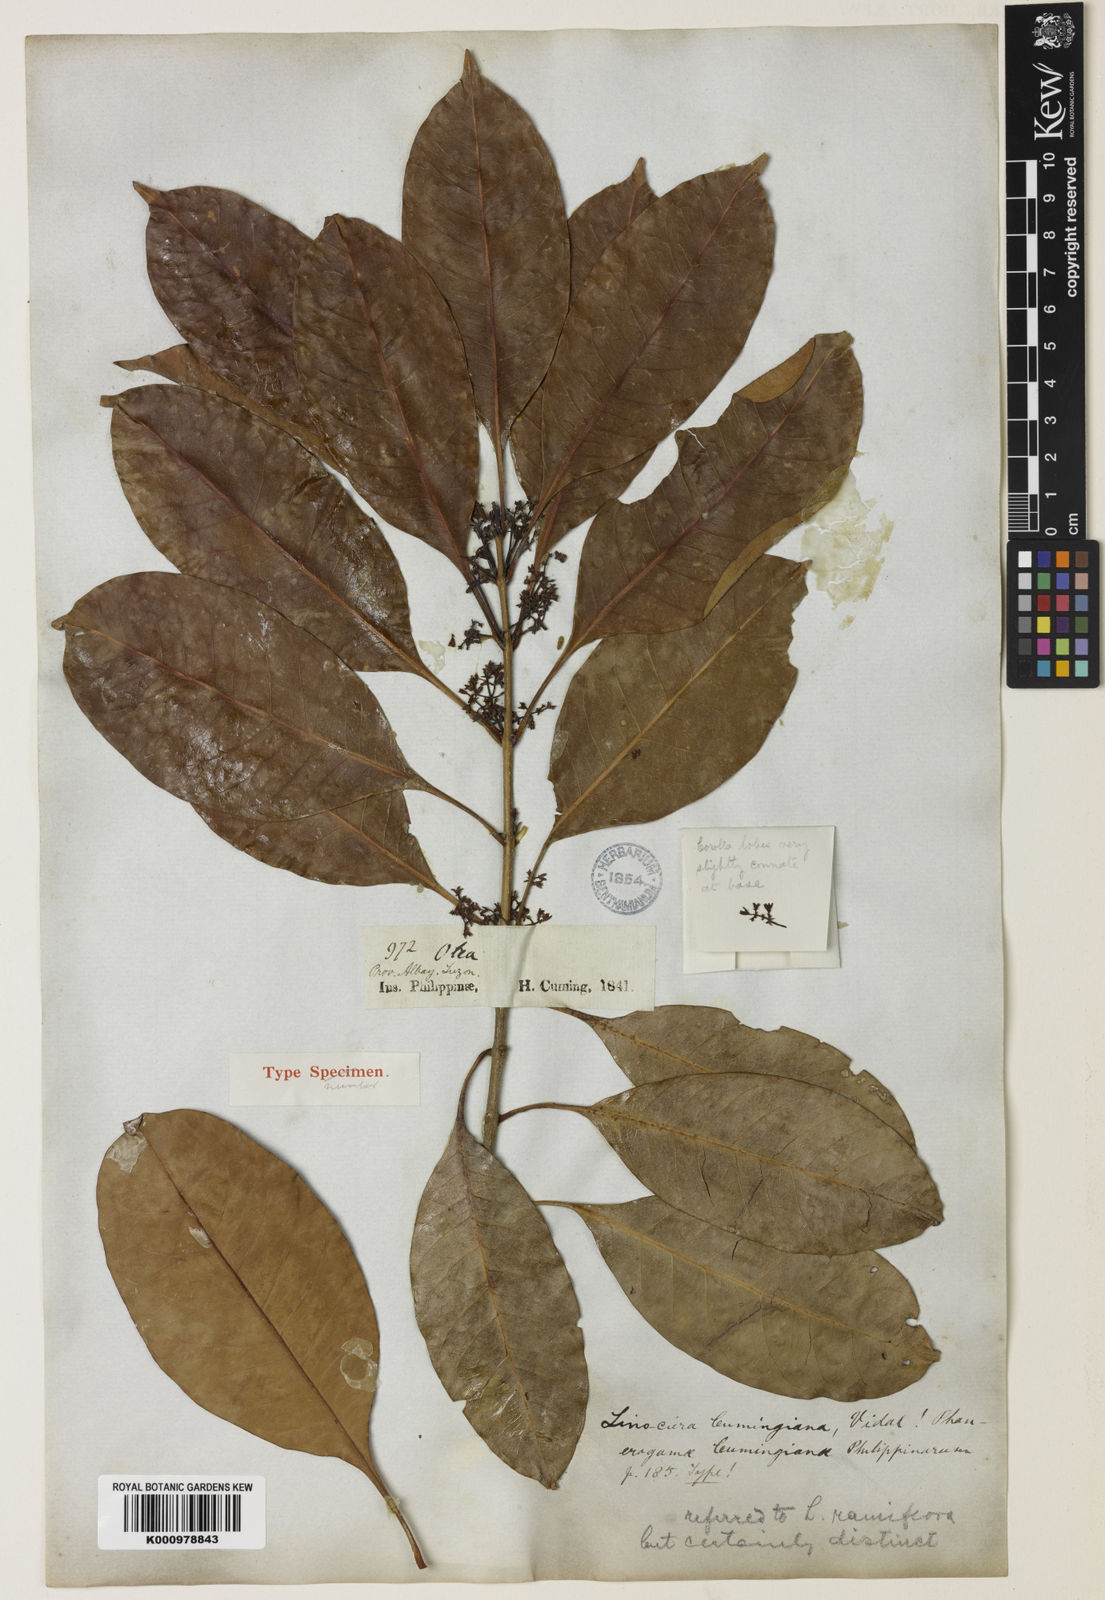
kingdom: Plantae
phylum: Tracheophyta
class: Magnoliopsida
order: Lamiales
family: Oleaceae
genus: Chionanthus
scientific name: Chionanthus ramiflorus
